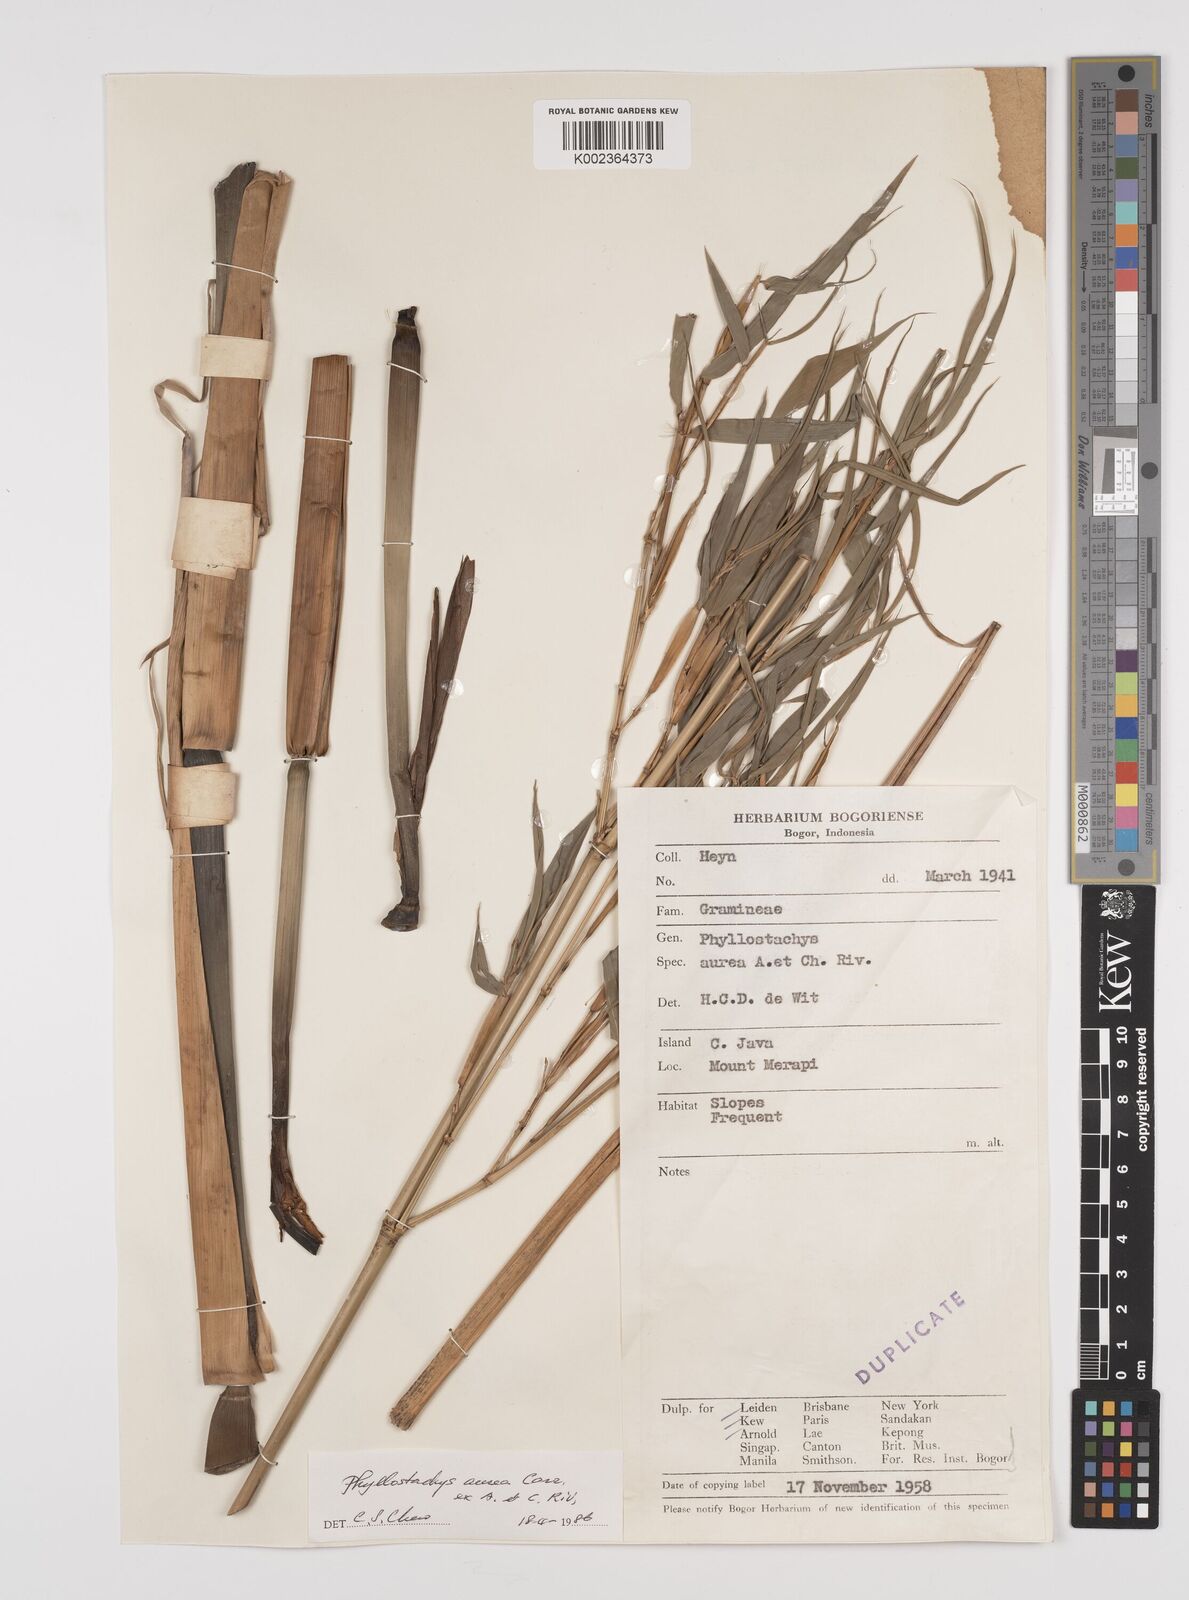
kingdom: Plantae
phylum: Tracheophyta
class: Liliopsida
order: Poales
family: Poaceae
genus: Phyllostachys
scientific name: Phyllostachys aurea
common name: Golden bamboo
